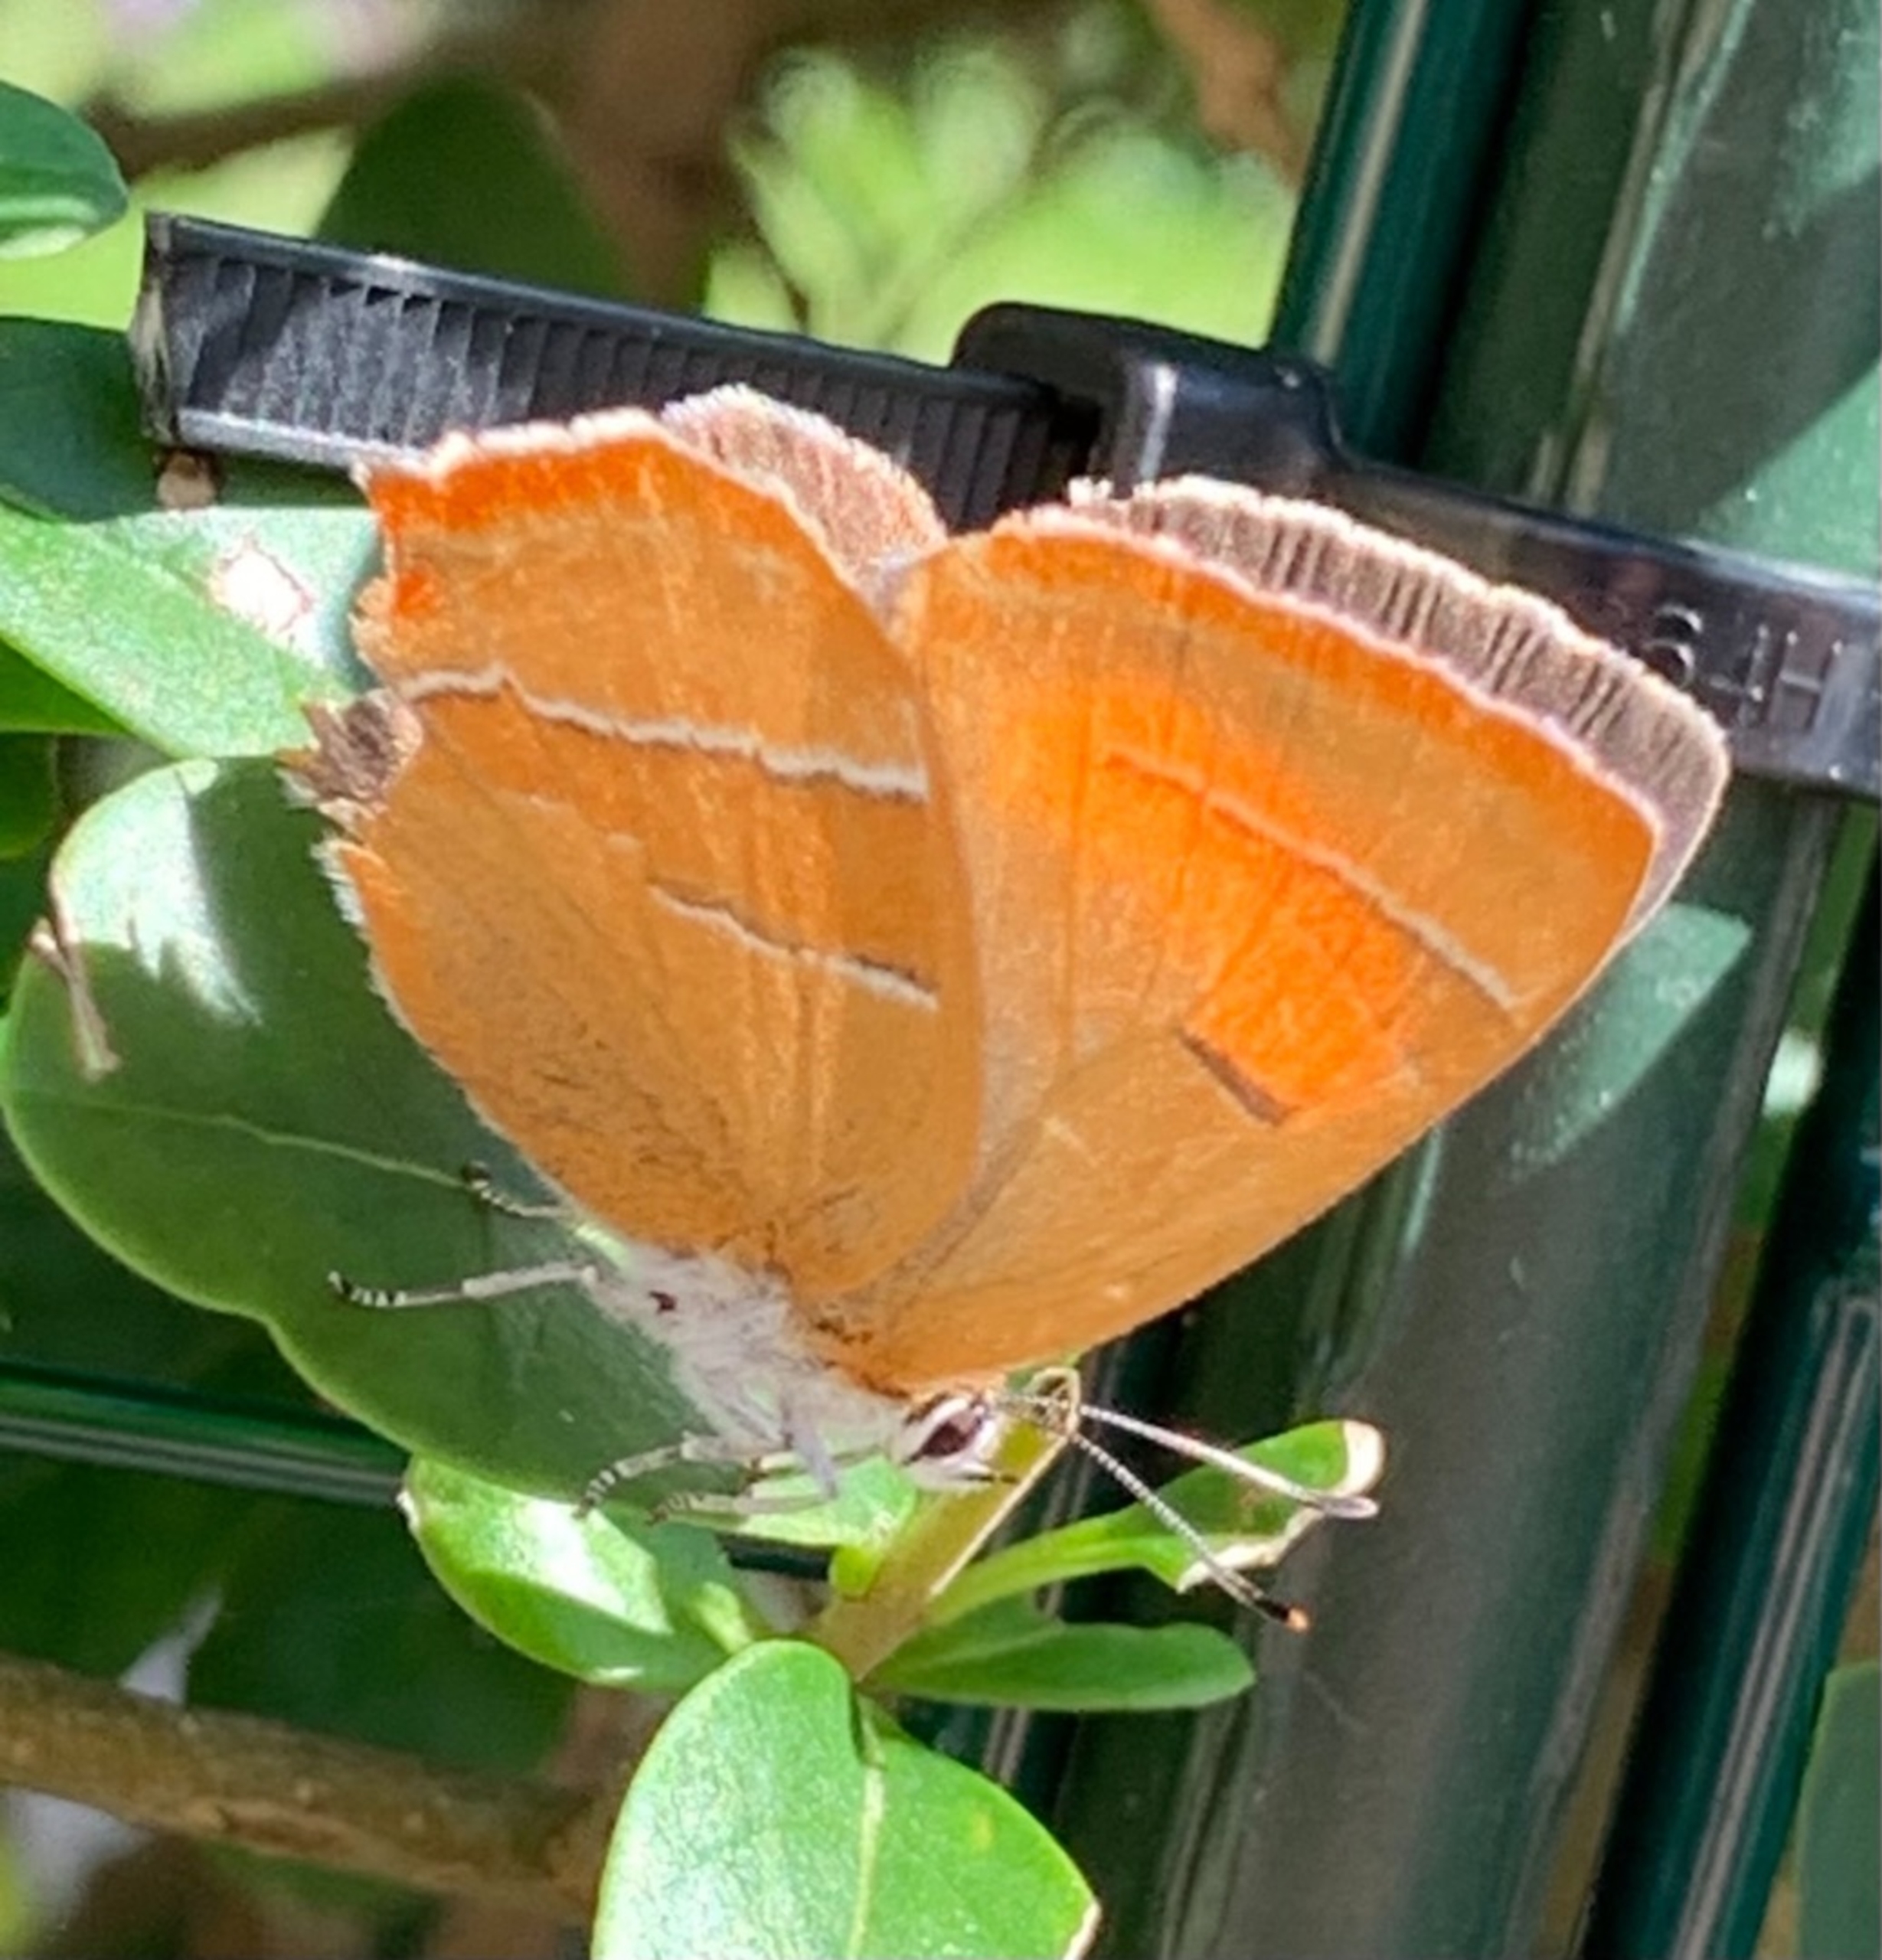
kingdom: Animalia
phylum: Arthropoda
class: Insecta
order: Lepidoptera
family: Lycaenidae
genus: Thecla
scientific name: Thecla betulae
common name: Guldhale
